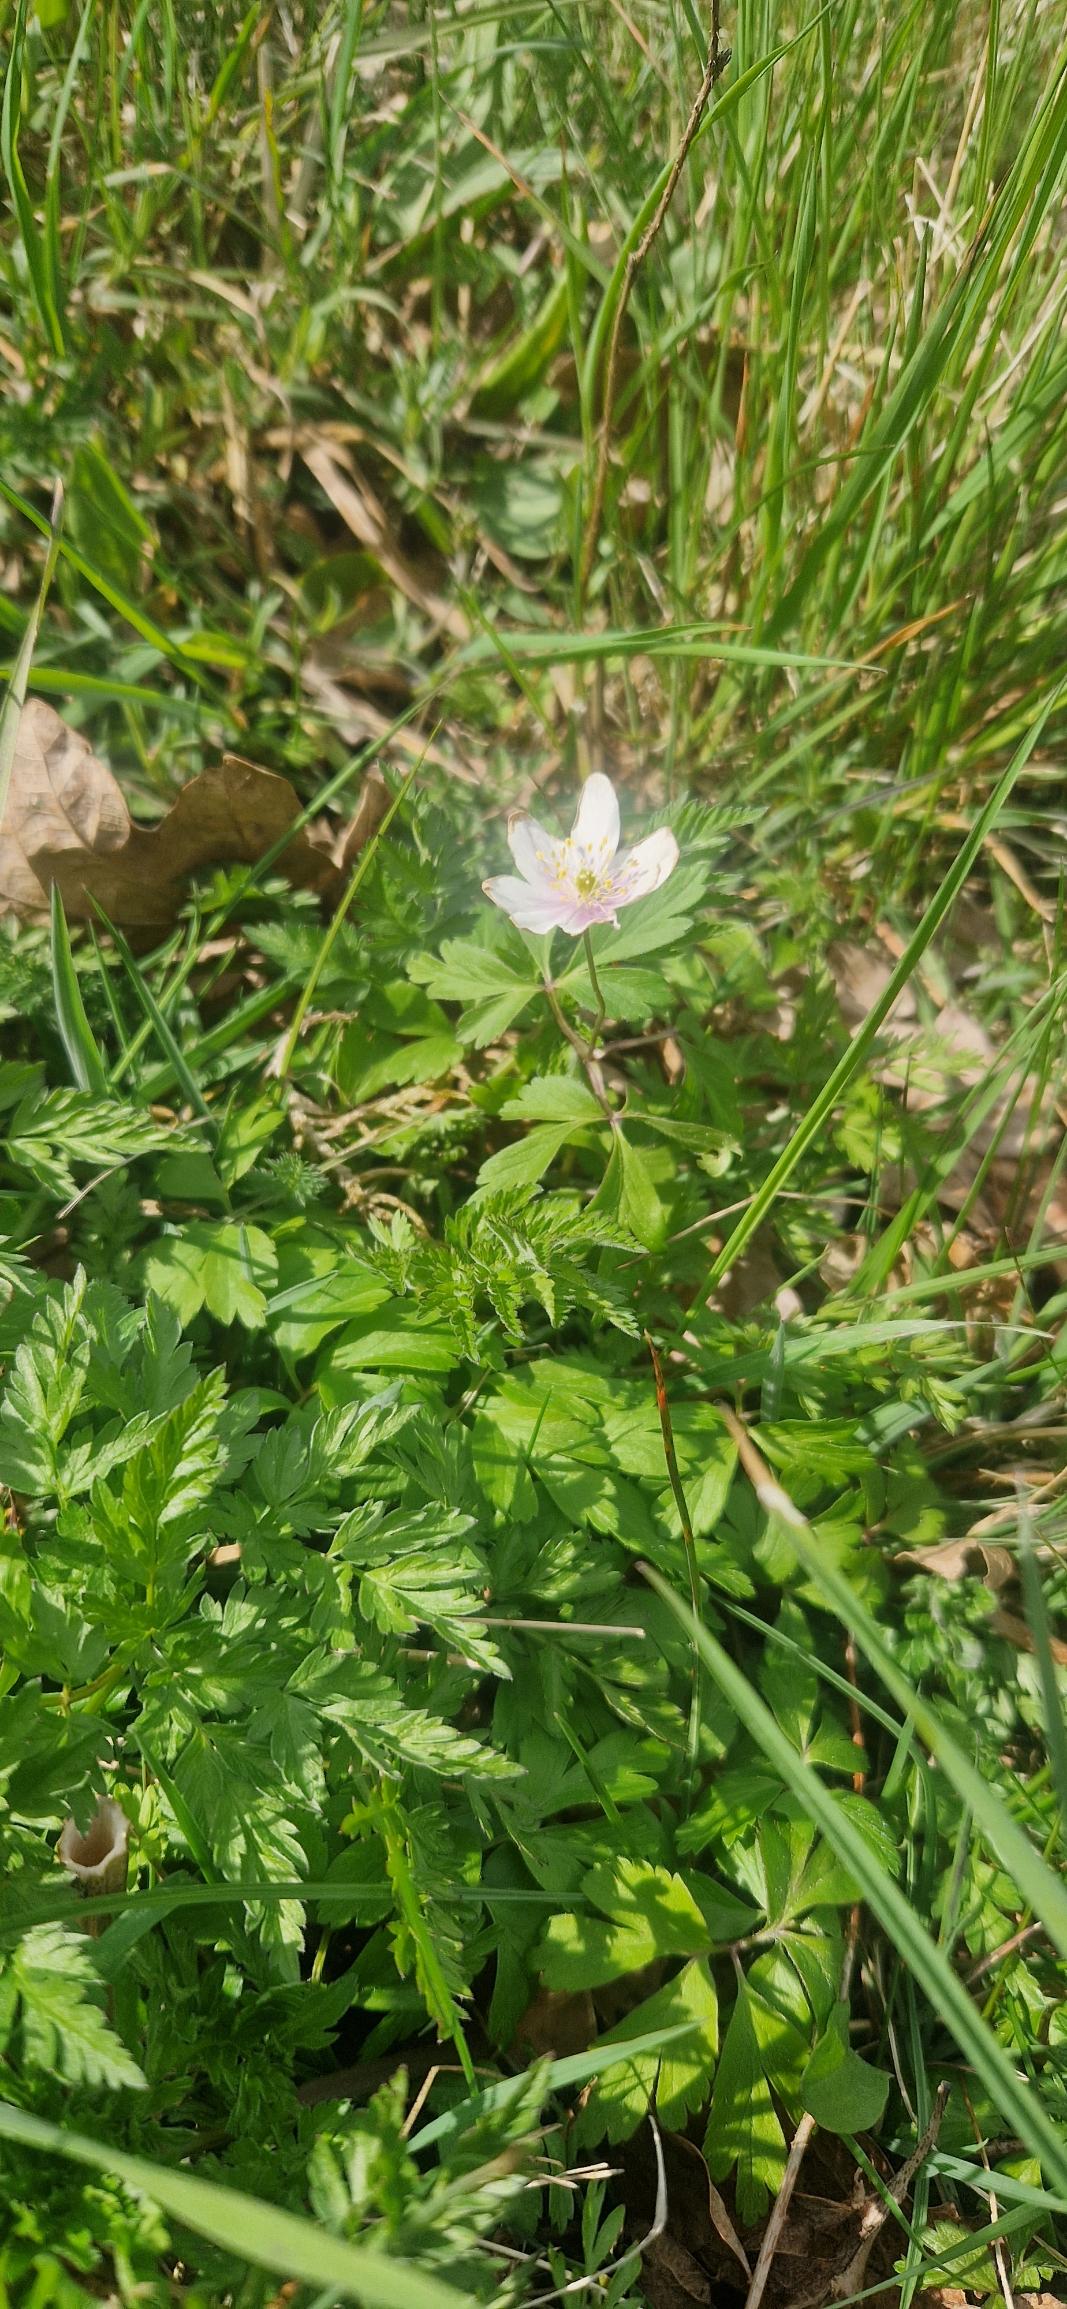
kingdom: Plantae
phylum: Tracheophyta
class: Magnoliopsida
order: Ranunculales
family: Ranunculaceae
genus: Anemone
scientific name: Anemone nemorosa
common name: Hvid anemone
